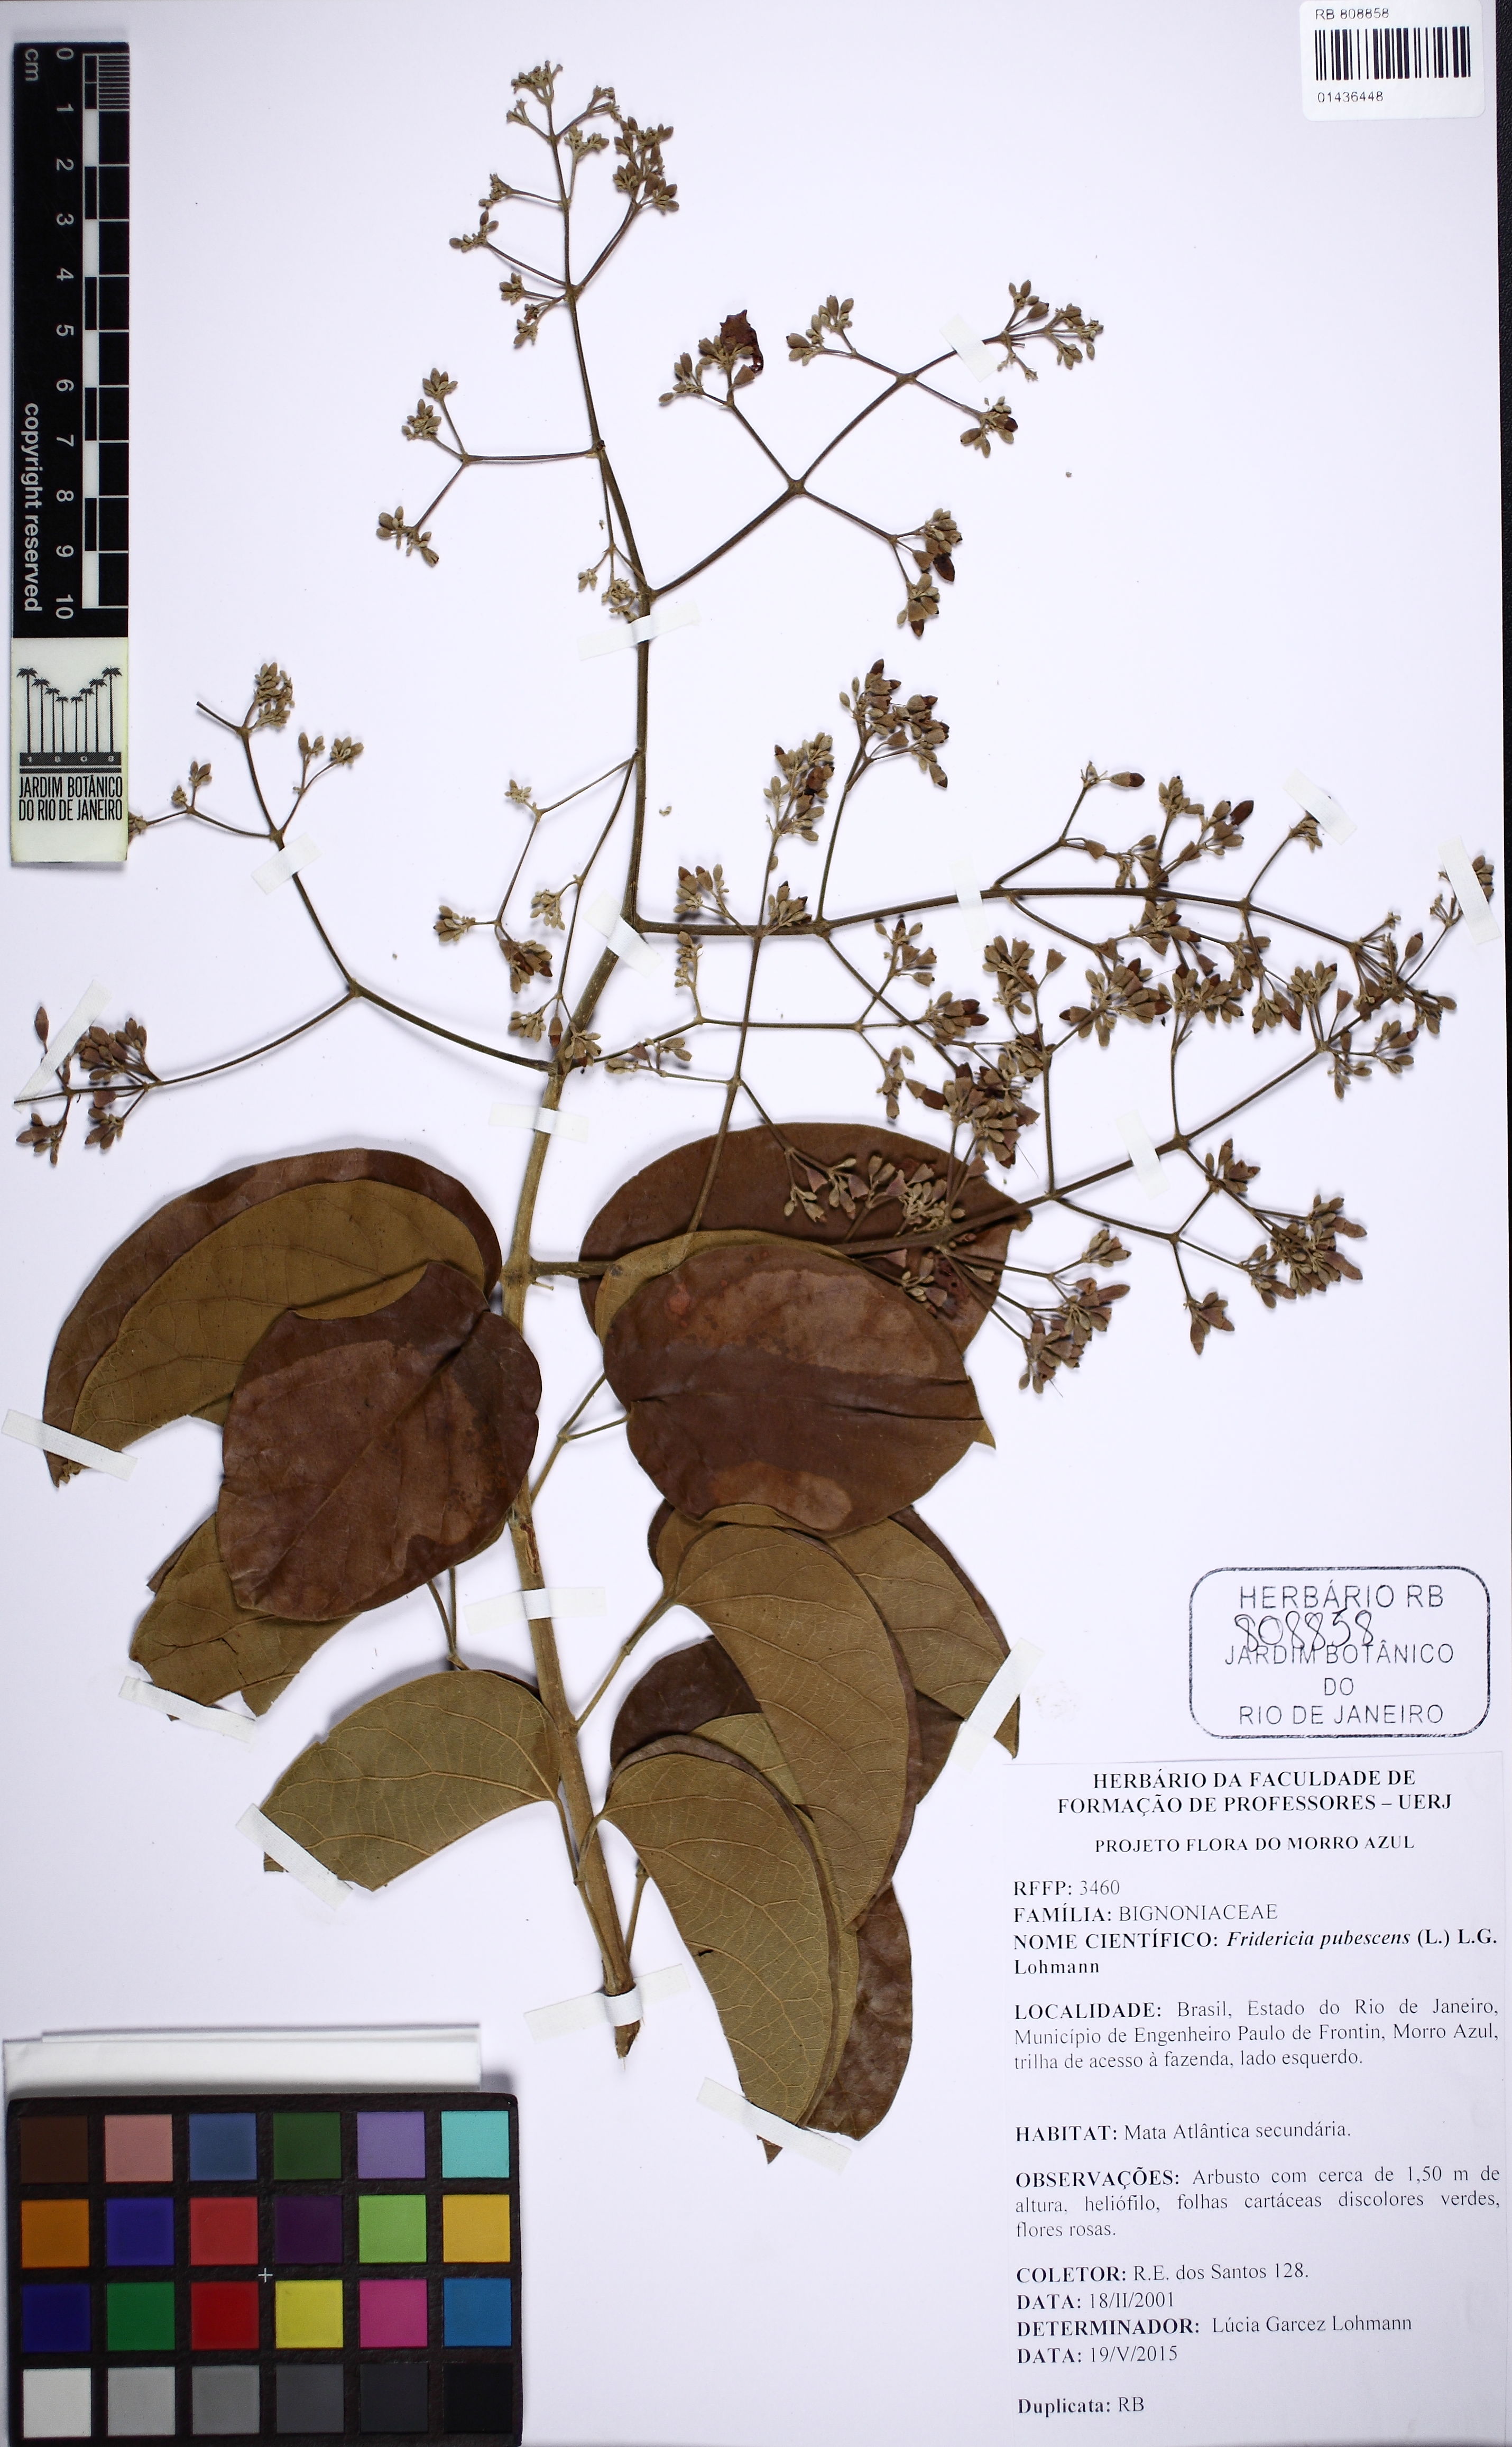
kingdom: Plantae
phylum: Tracheophyta
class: Magnoliopsida
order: Lamiales
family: Bignoniaceae
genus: Fridericia
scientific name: Fridericia pubescens
